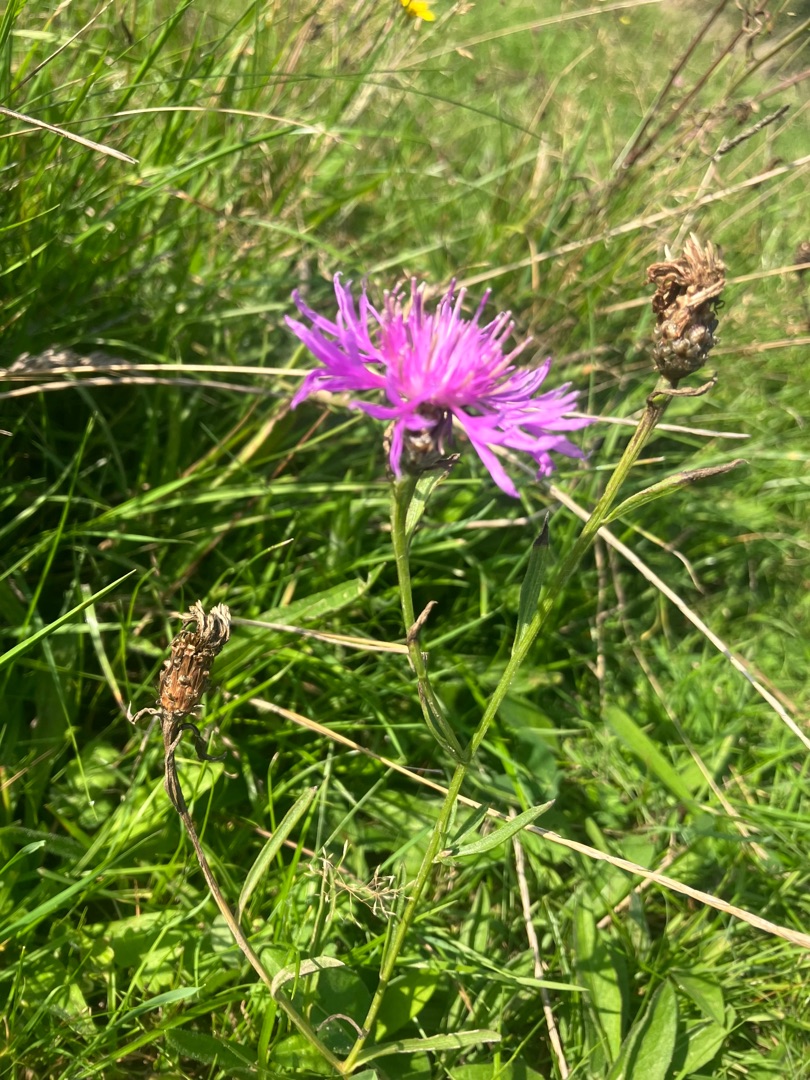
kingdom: Plantae
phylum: Tracheophyta
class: Magnoliopsida
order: Asterales
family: Asteraceae
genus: Centaurea
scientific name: Centaurea jacea
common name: Almindelig knopurt
